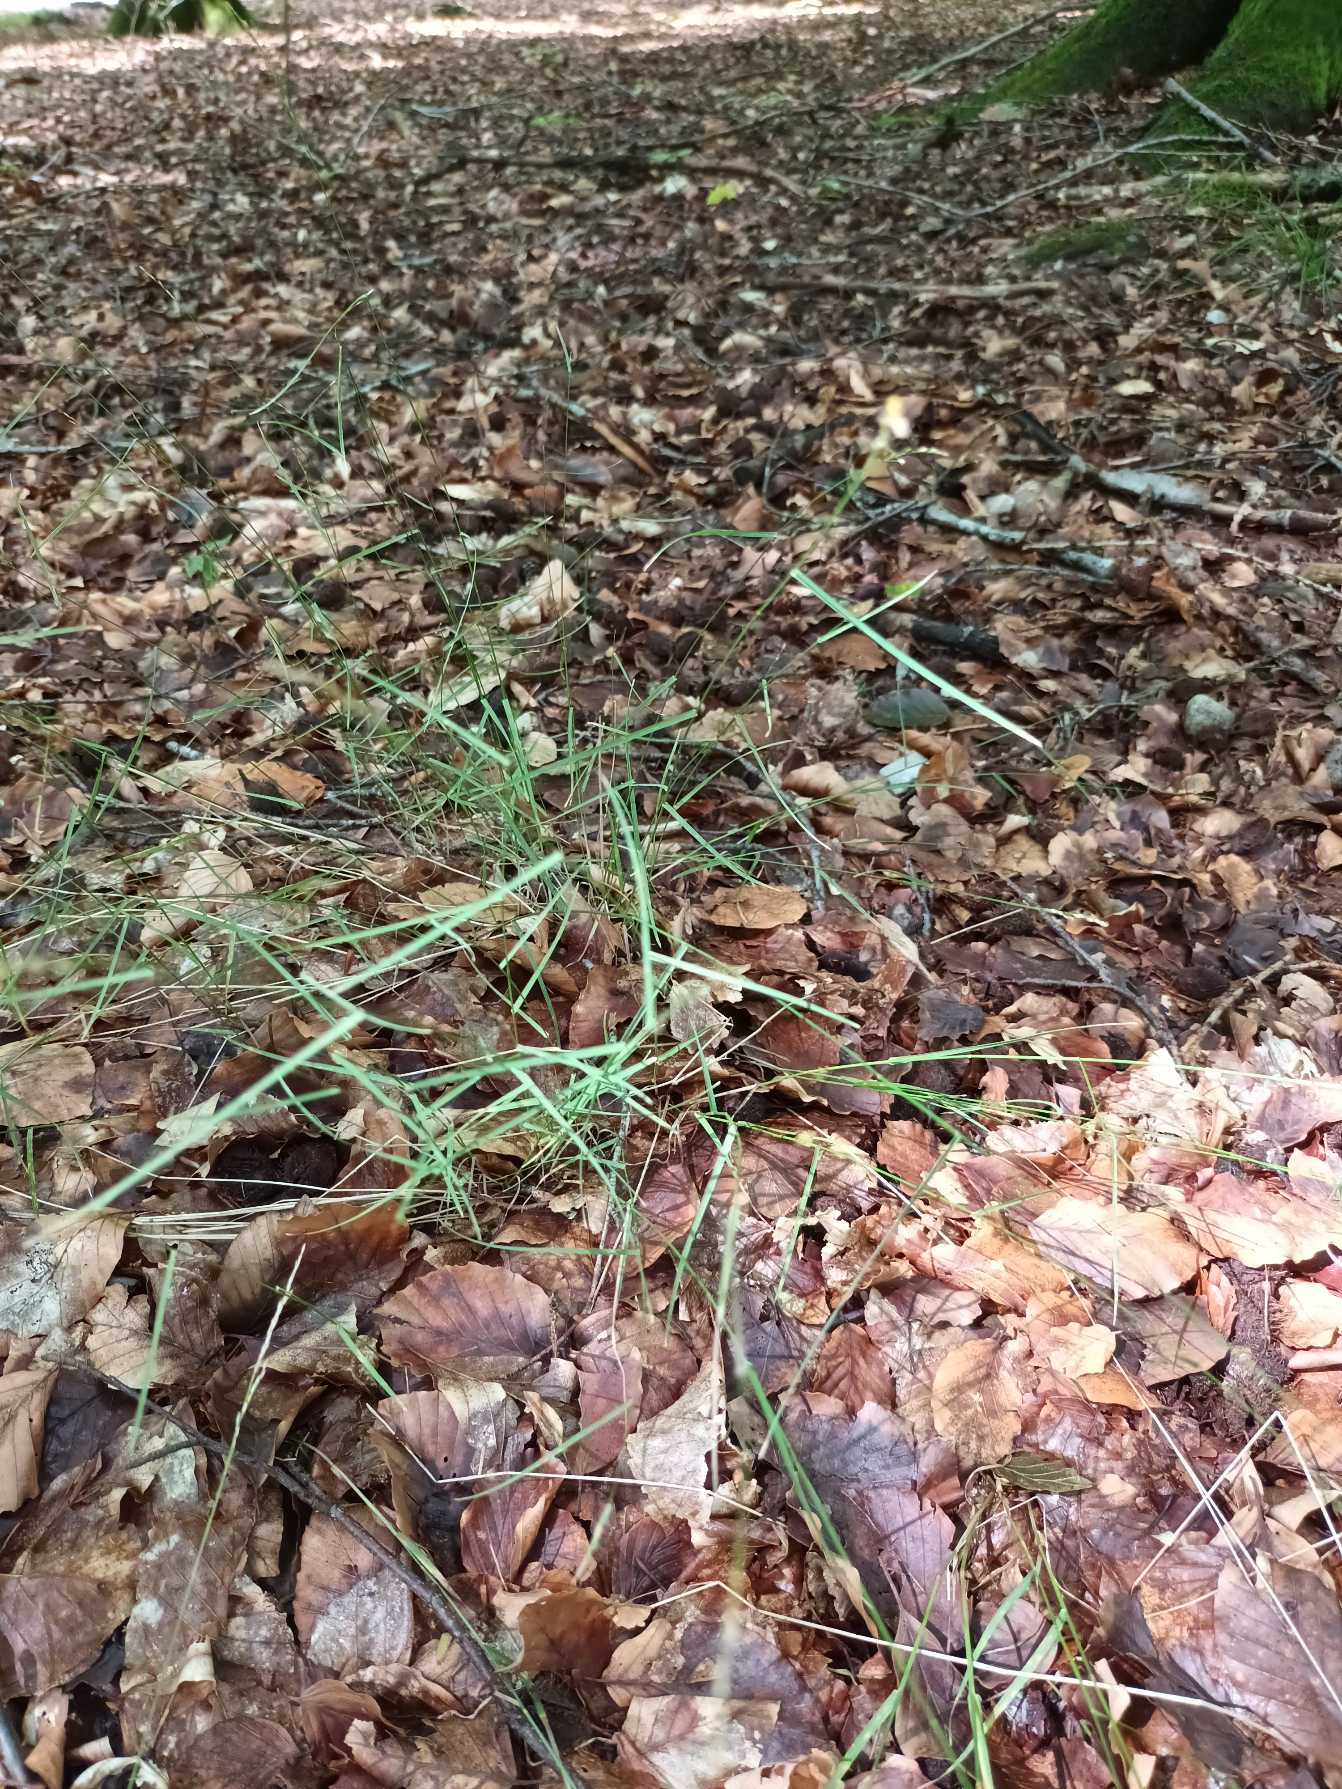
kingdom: Plantae
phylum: Tracheophyta
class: Liliopsida
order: Poales
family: Poaceae
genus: Poa
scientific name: Poa nemoralis
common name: Lund-rapgræs
